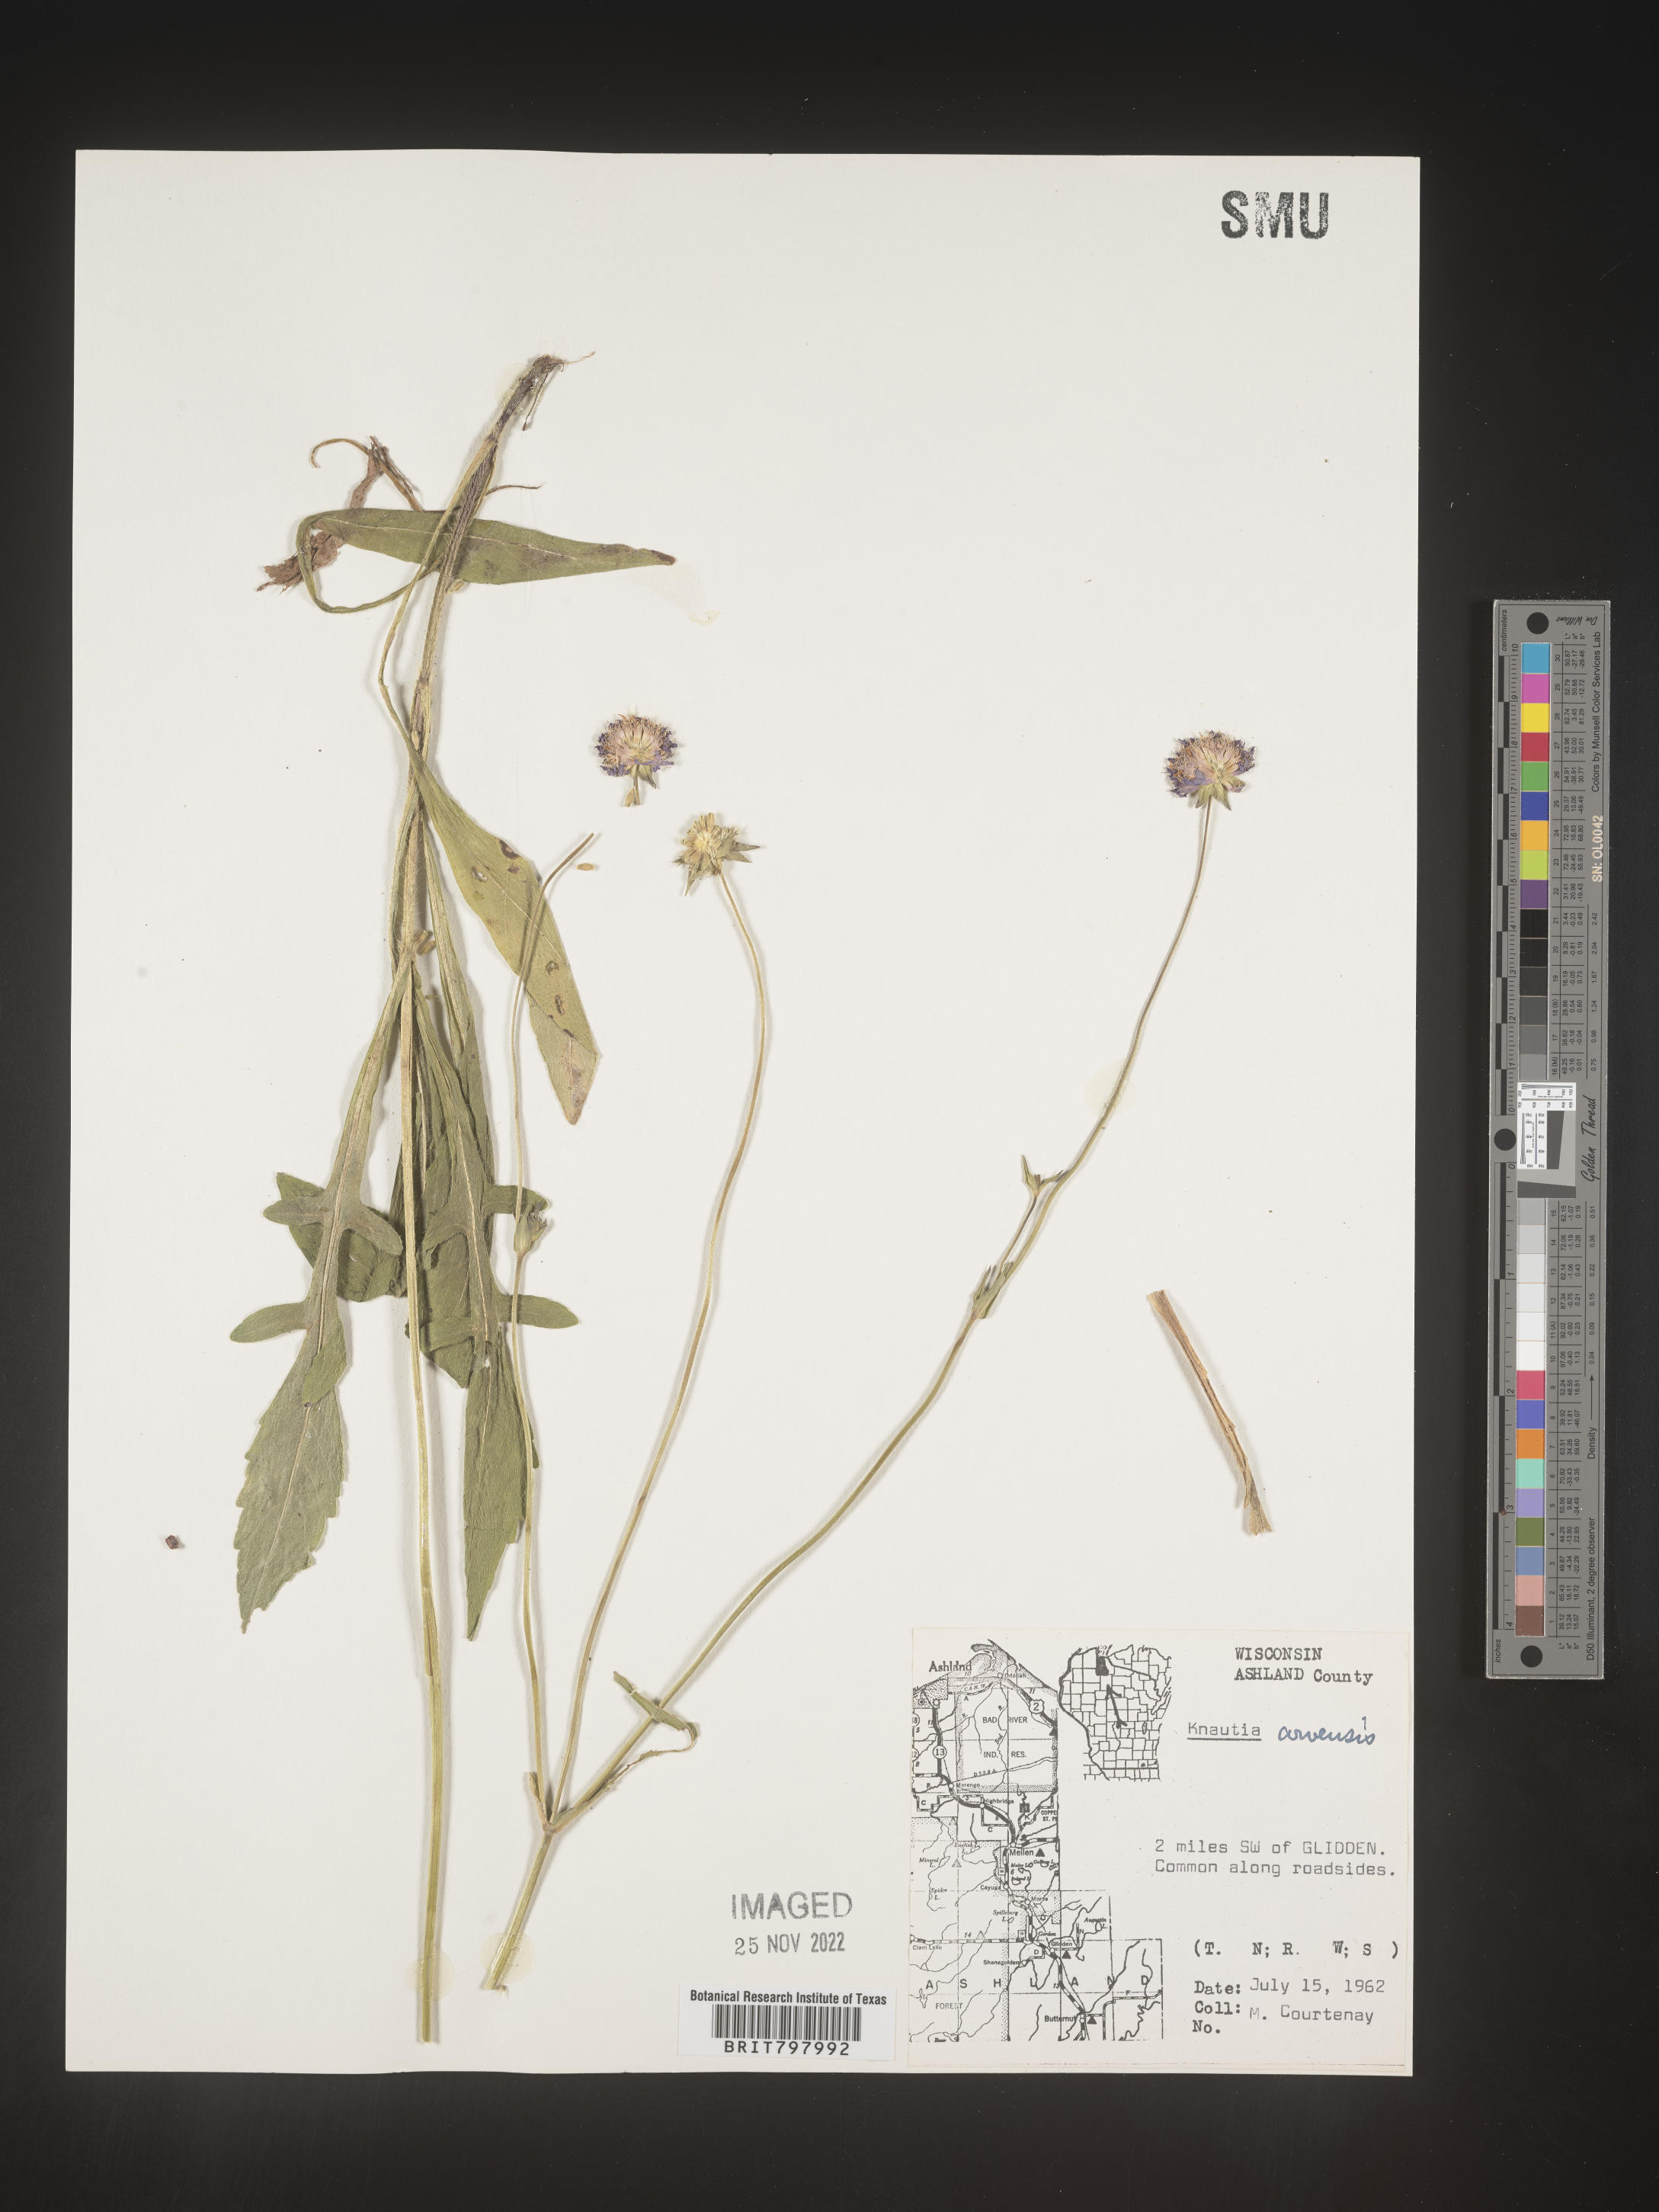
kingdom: Plantae
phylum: Tracheophyta
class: Magnoliopsida
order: Dipsacales
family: Caprifoliaceae
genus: Knautia
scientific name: Knautia
